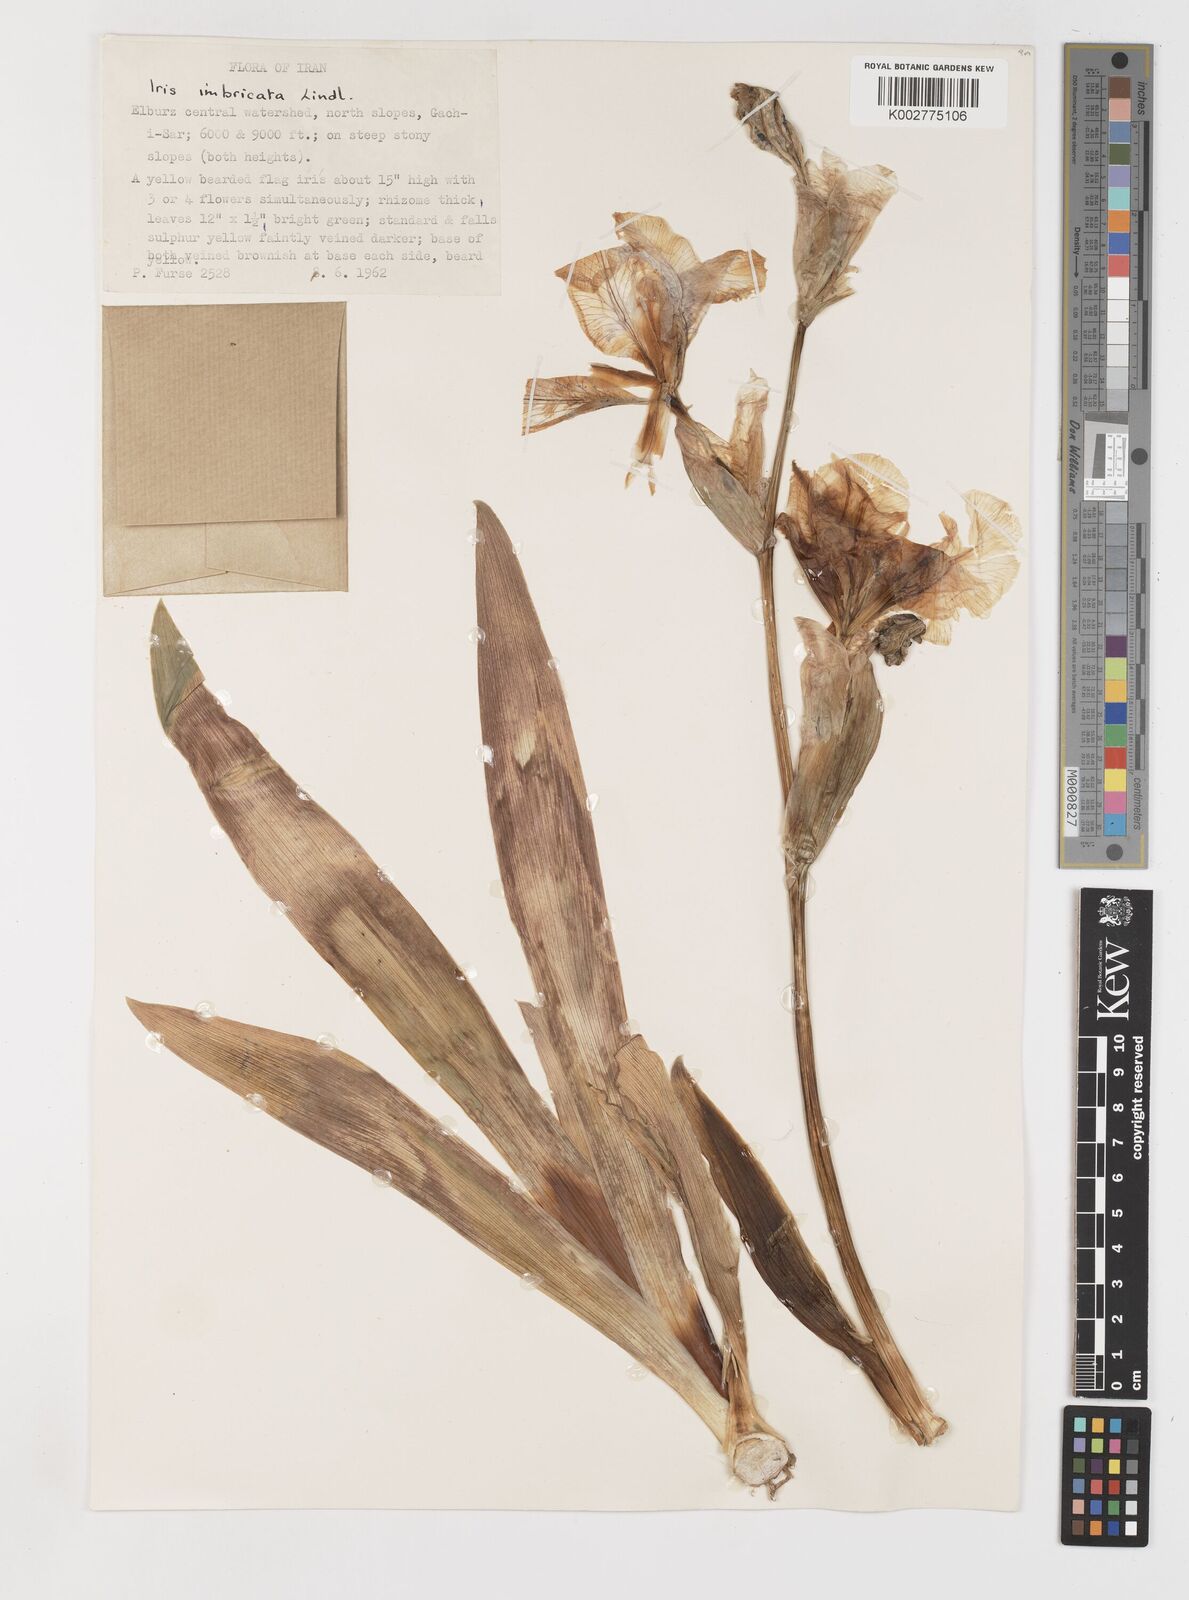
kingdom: Plantae
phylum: Tracheophyta
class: Liliopsida
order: Asparagales
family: Iridaceae
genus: Iris
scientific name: Iris imbricata
